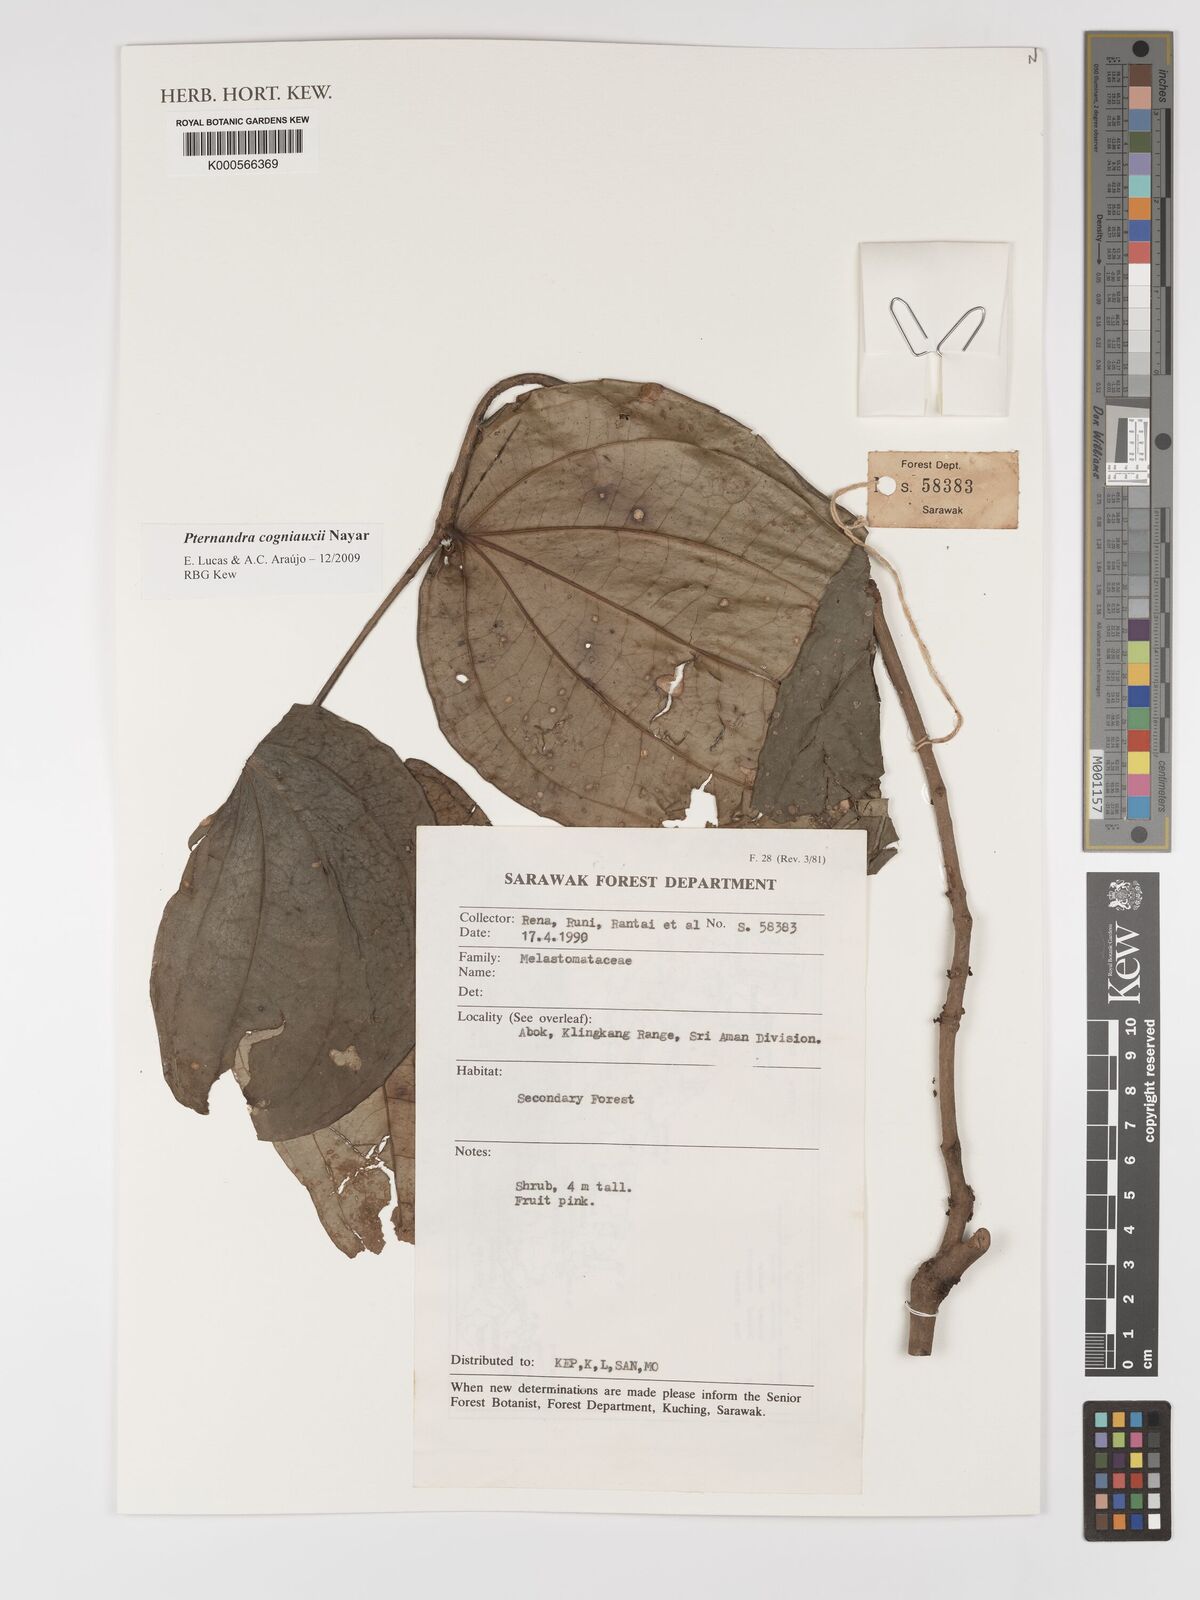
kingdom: Plantae
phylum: Tracheophyta
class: Magnoliopsida
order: Myrtales
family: Melastomataceae
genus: Pternandra
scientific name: Pternandra cogniauxii
